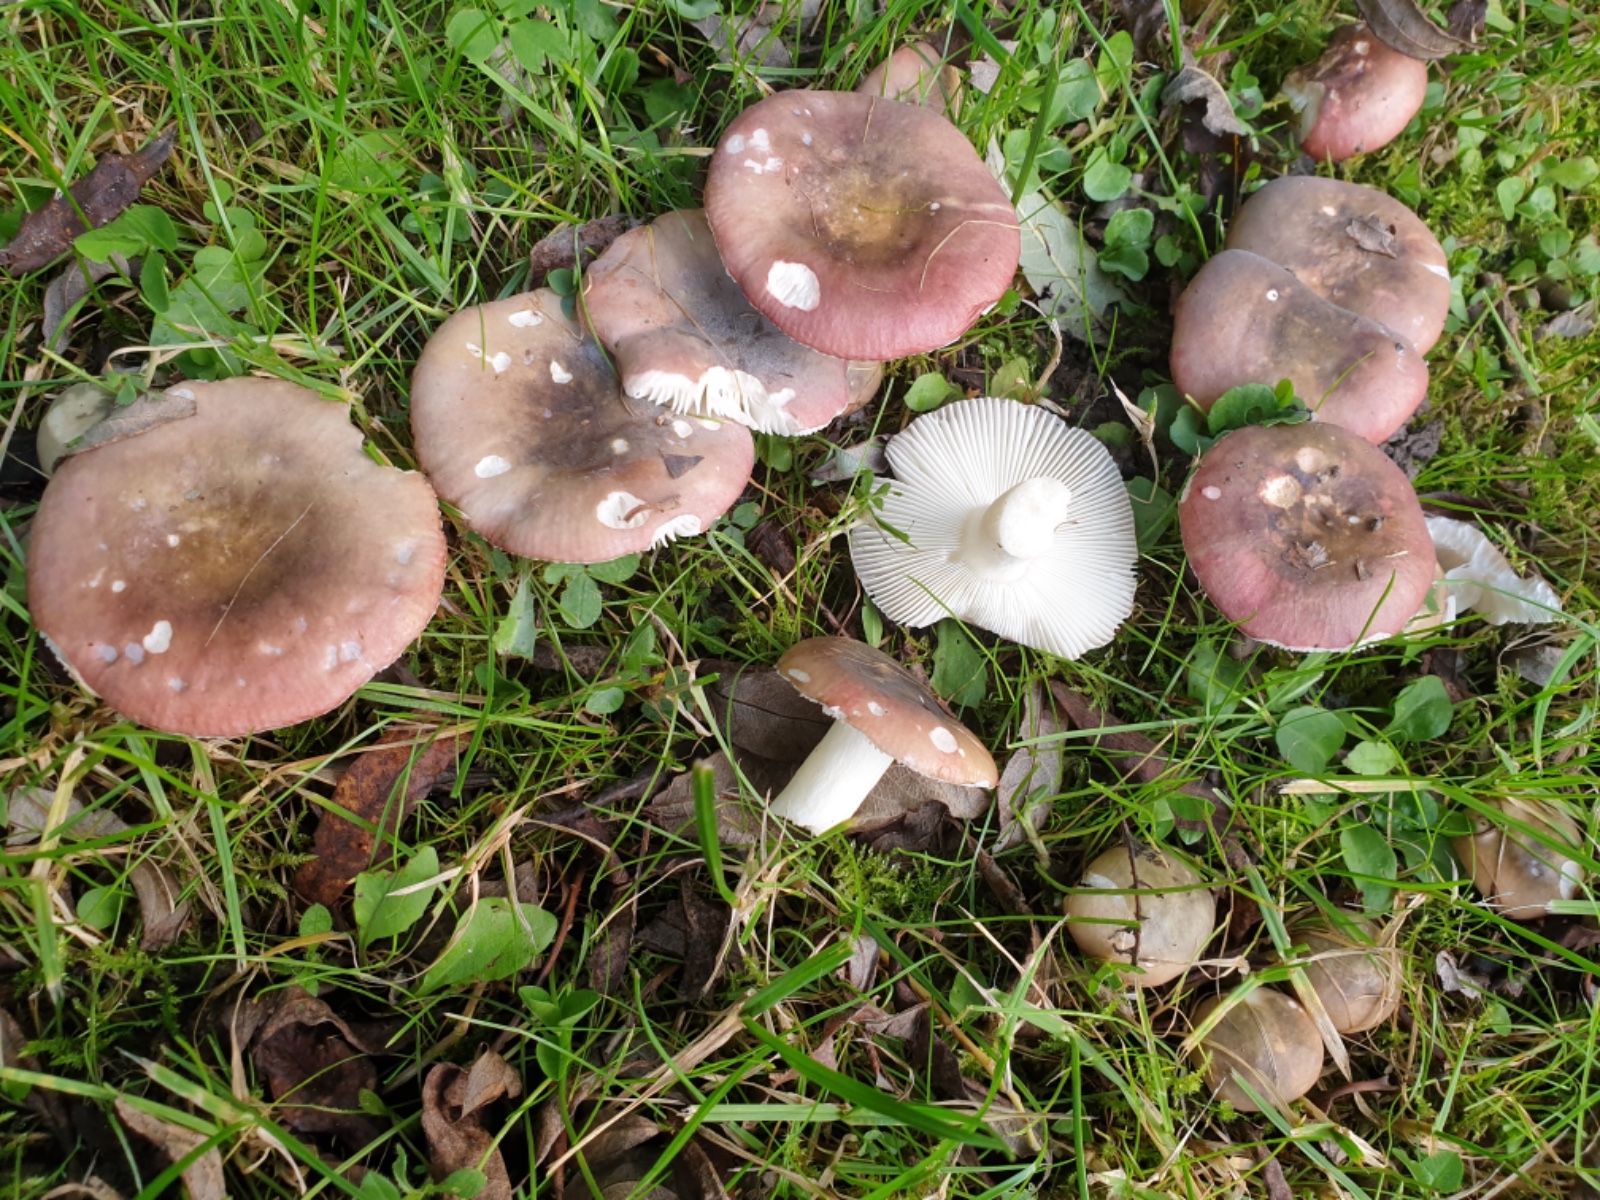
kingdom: Fungi
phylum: Basidiomycota
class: Agaricomycetes
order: Russulales
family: Russulaceae
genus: Russula
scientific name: Russula
